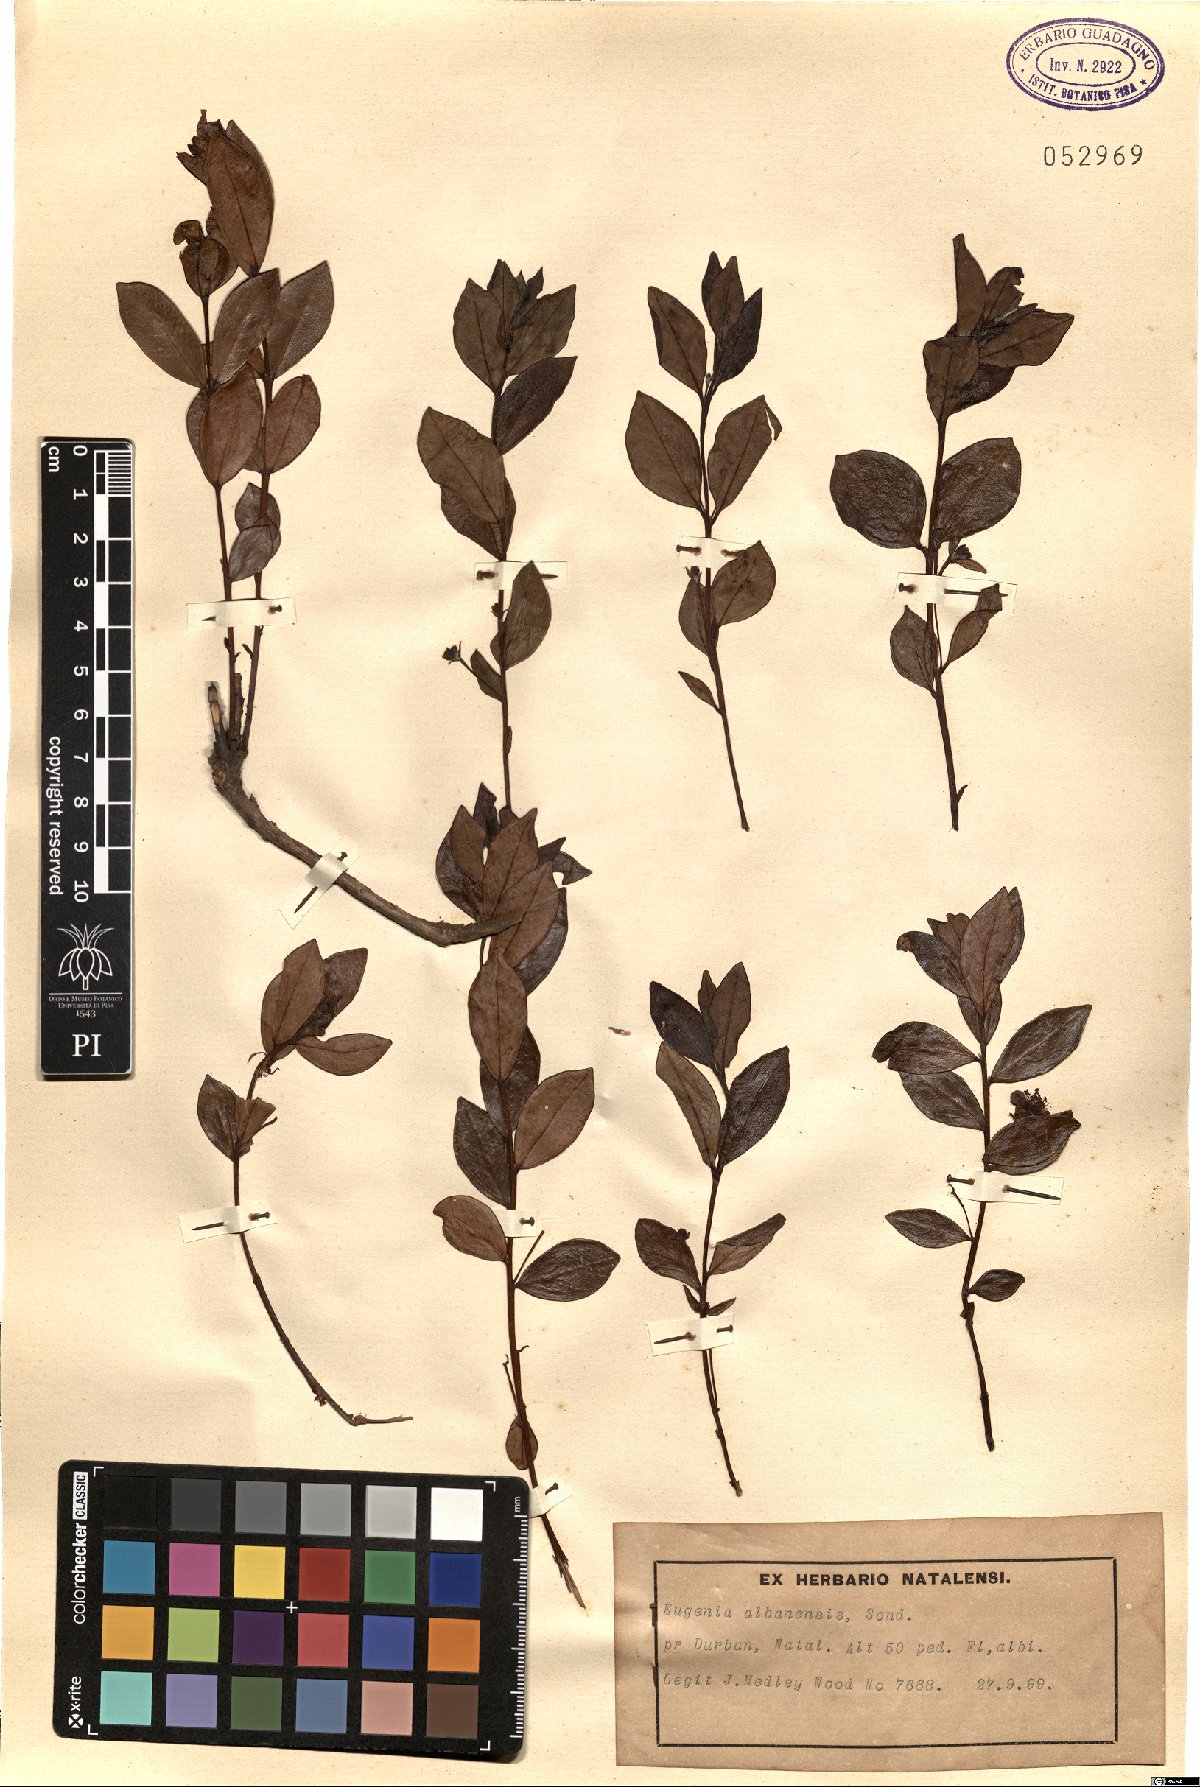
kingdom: Plantae
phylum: Tracheophyta
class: Magnoliopsida
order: Myrtales
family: Myrtaceae
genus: Eugenia
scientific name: Eugenia capensis
